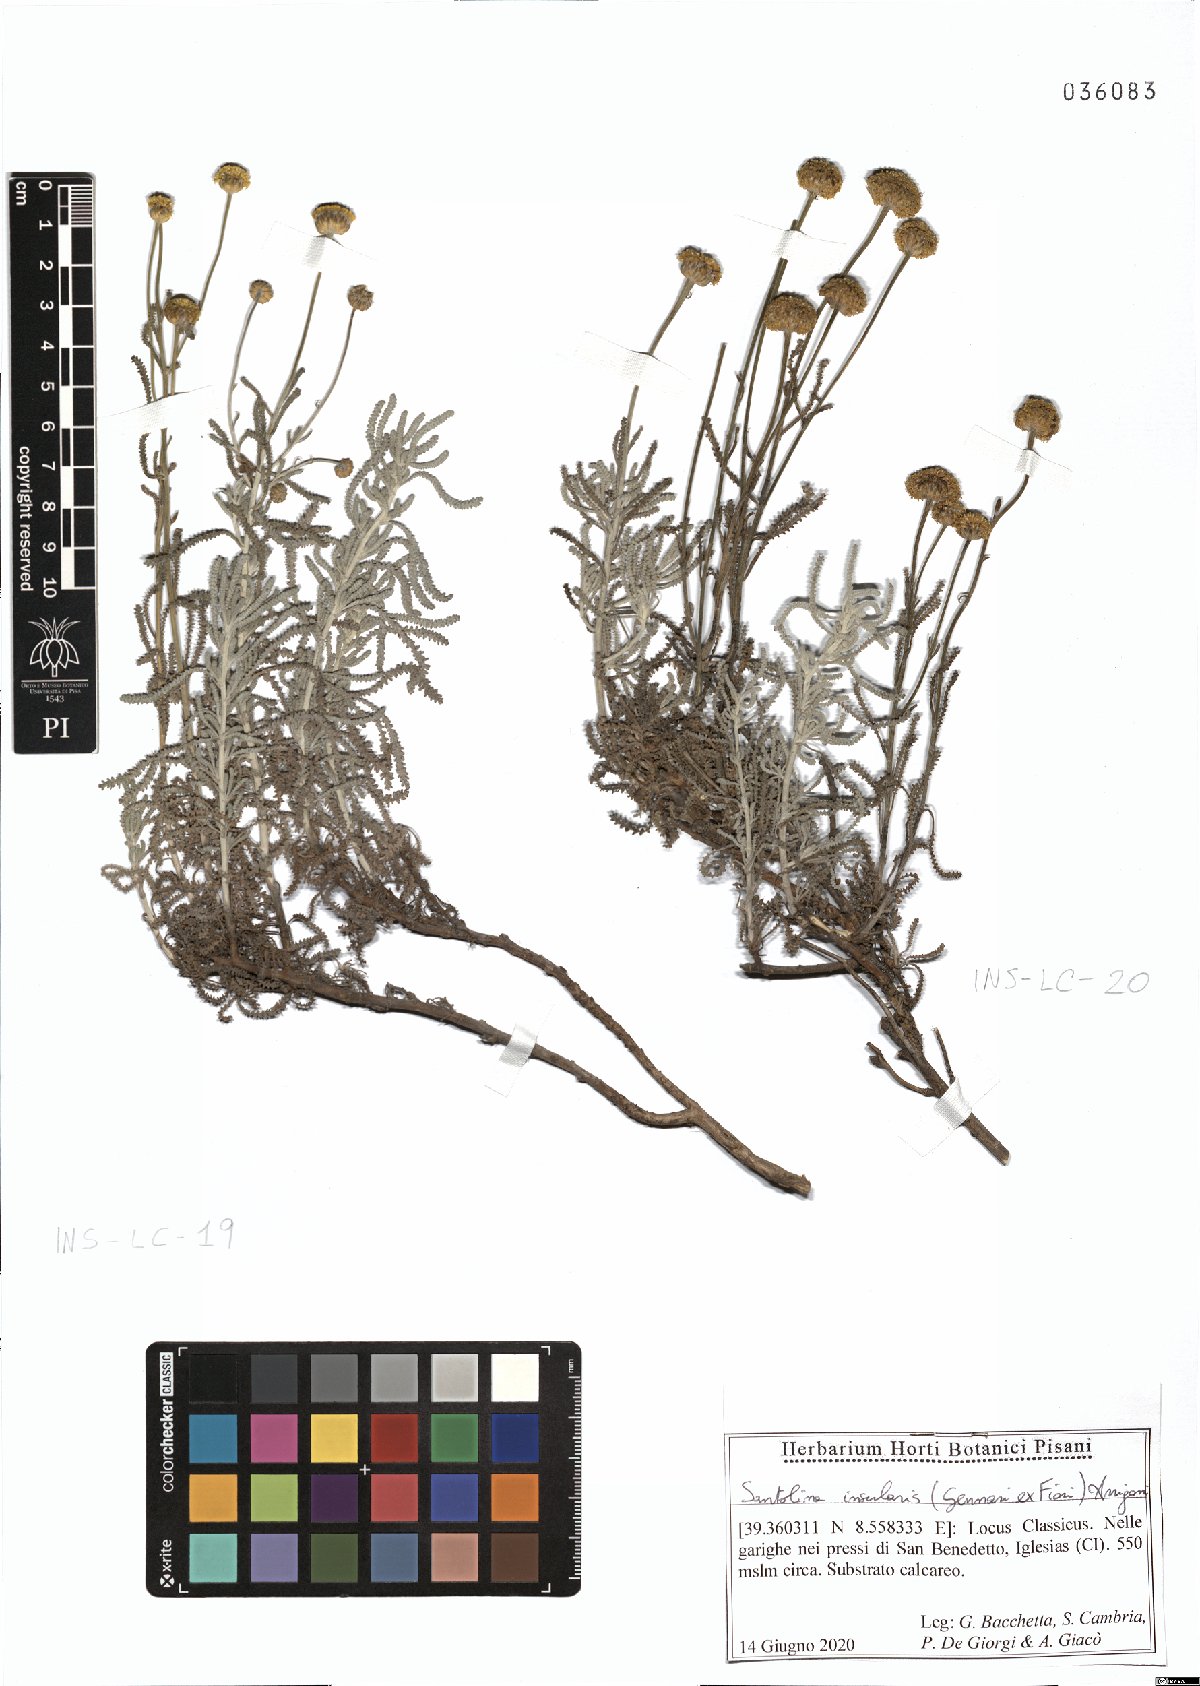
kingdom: Plantae
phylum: Tracheophyta
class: Magnoliopsida
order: Asterales
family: Asteraceae
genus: Santolina
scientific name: Santolina insularis
